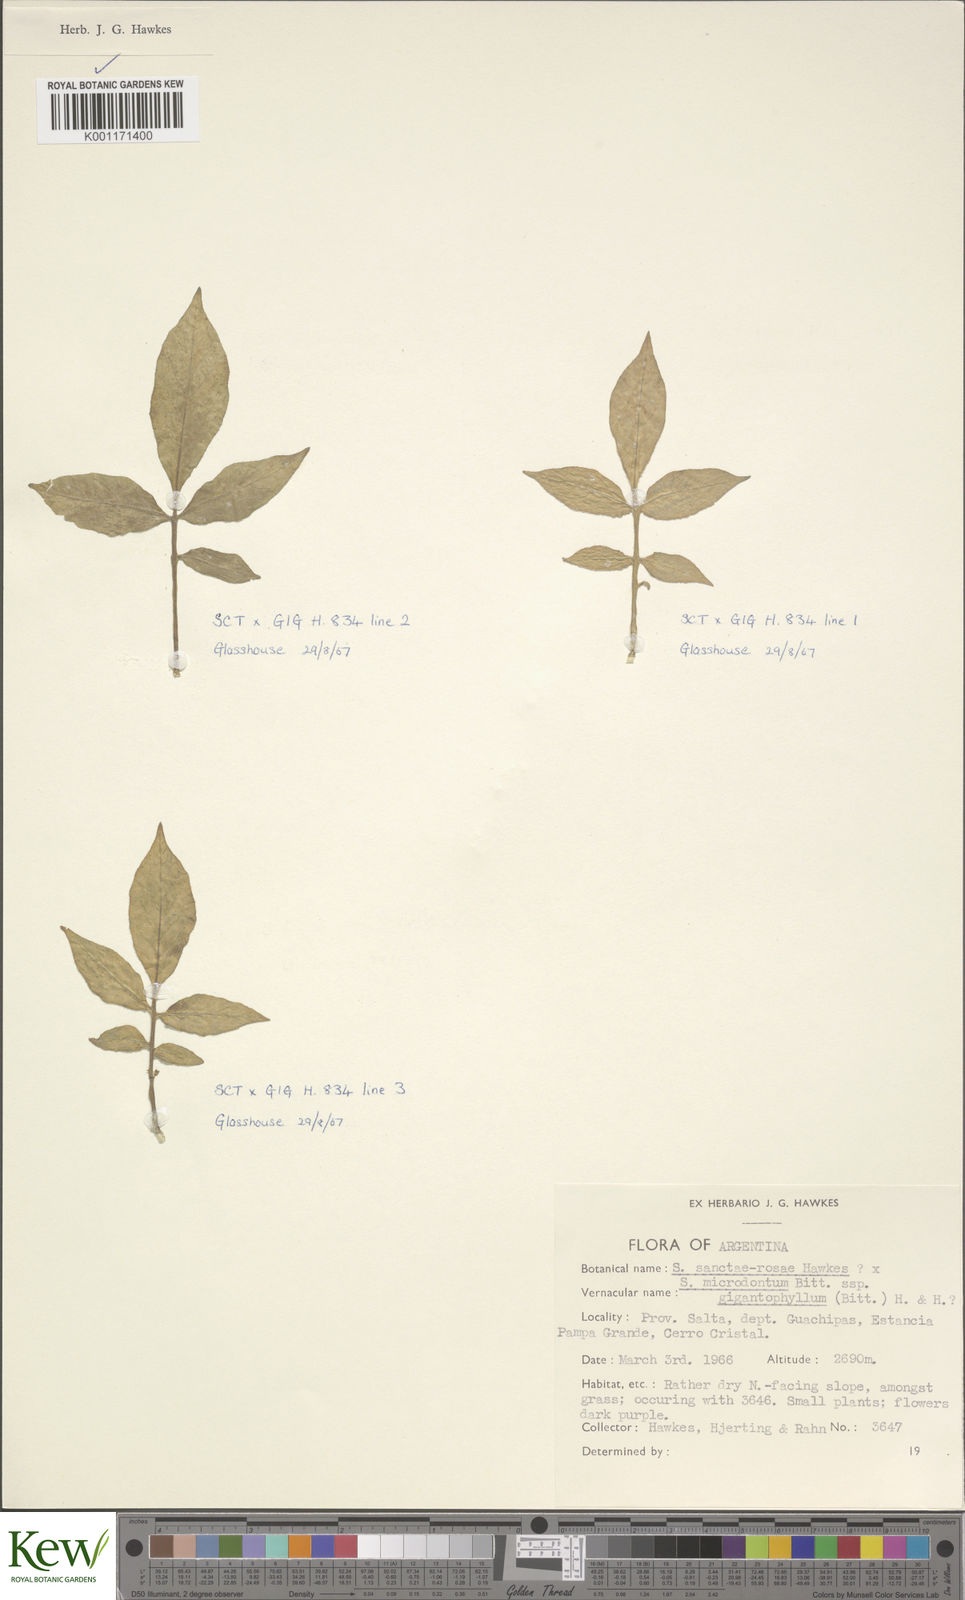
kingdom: Plantae
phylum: Tracheophyta
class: Magnoliopsida
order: Solanales
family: Solanaceae
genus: Solanum
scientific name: Solanum microdontum
